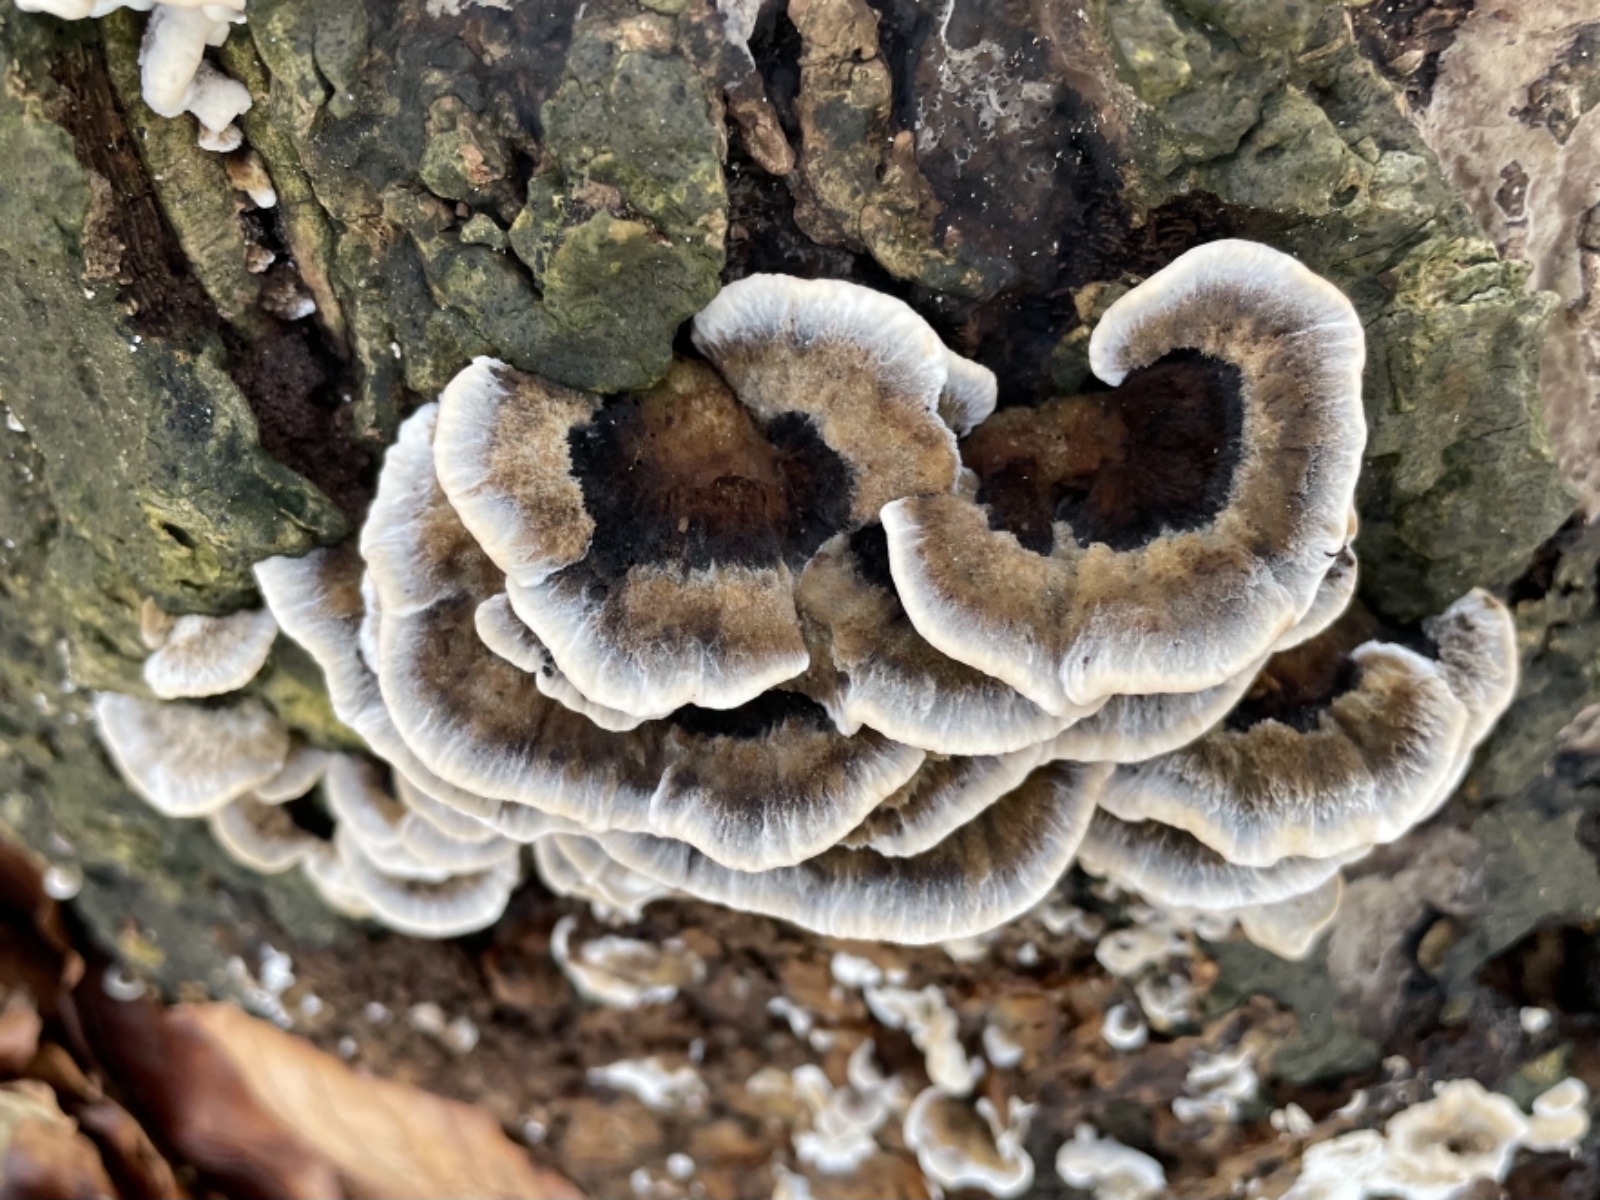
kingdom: Fungi
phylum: Basidiomycota
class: Agaricomycetes
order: Polyporales
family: Polyporaceae
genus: Trametes
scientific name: Trametes versicolor
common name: broget læderporesvamp
